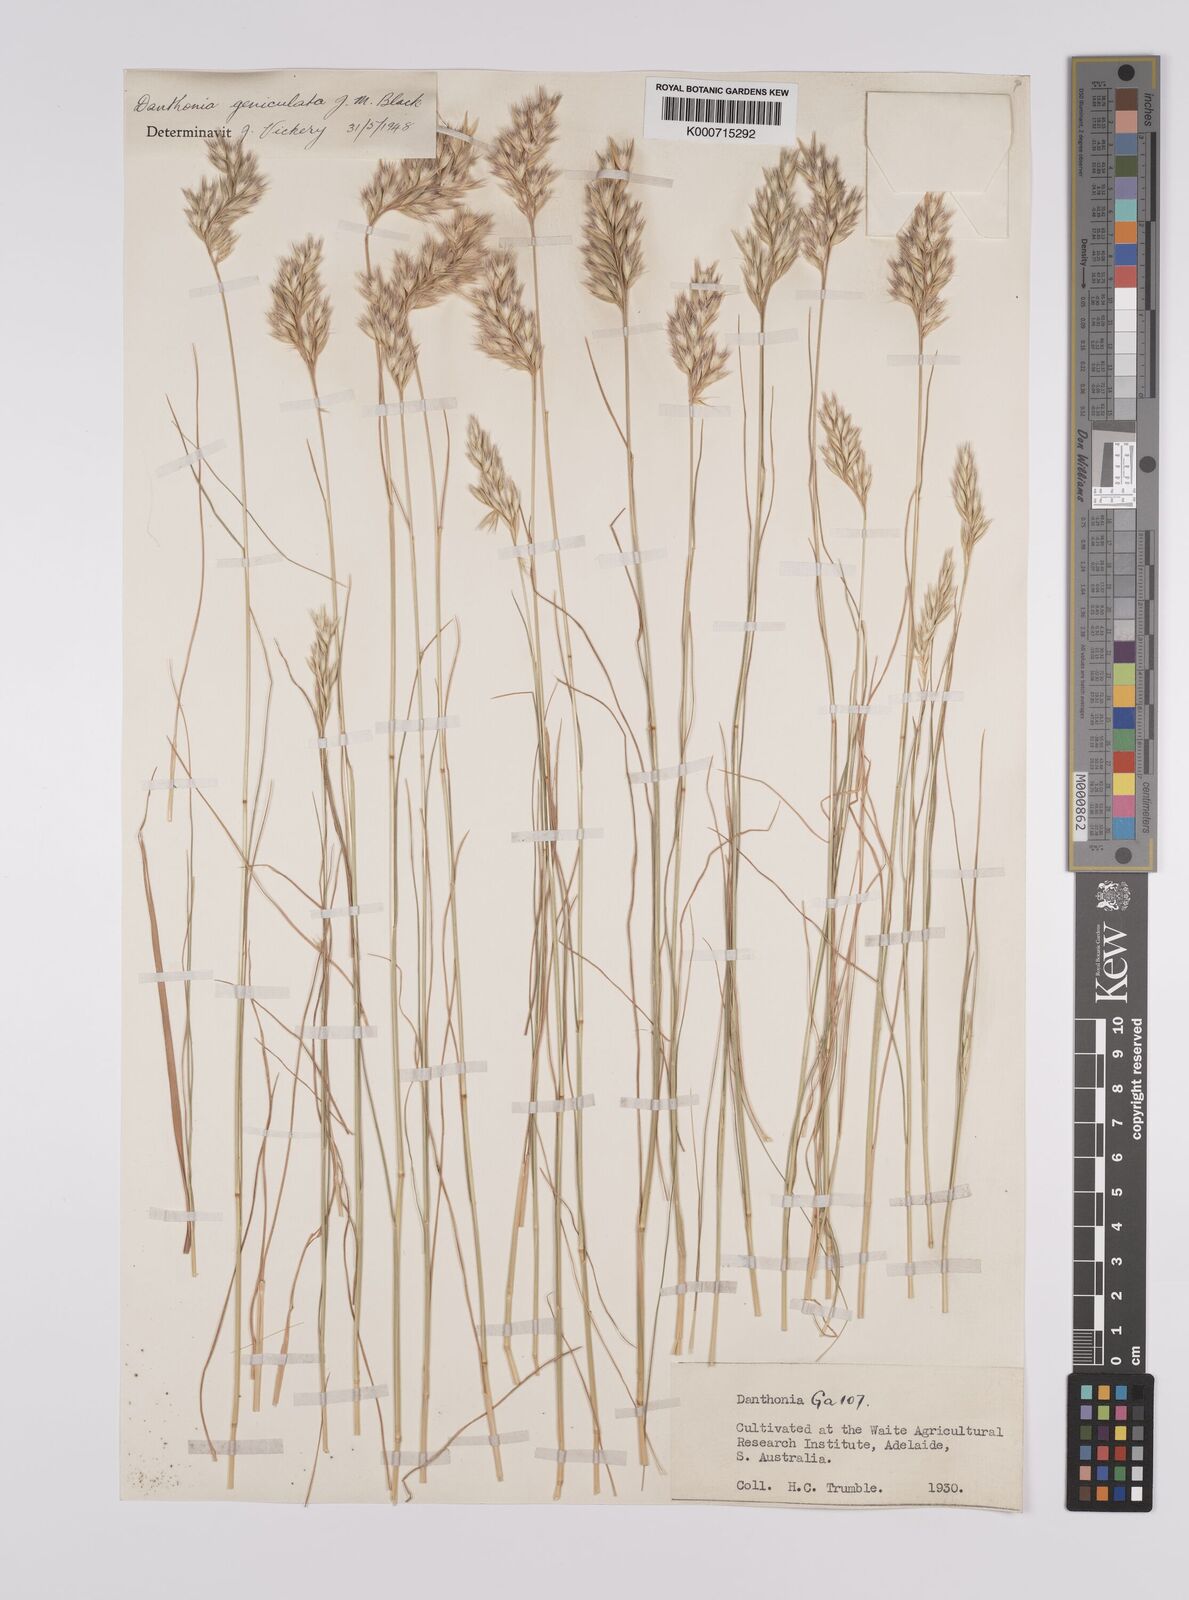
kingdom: Plantae
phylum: Tracheophyta
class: Liliopsida
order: Poales
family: Poaceae
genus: Rytidosperma
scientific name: Rytidosperma geniculatum
